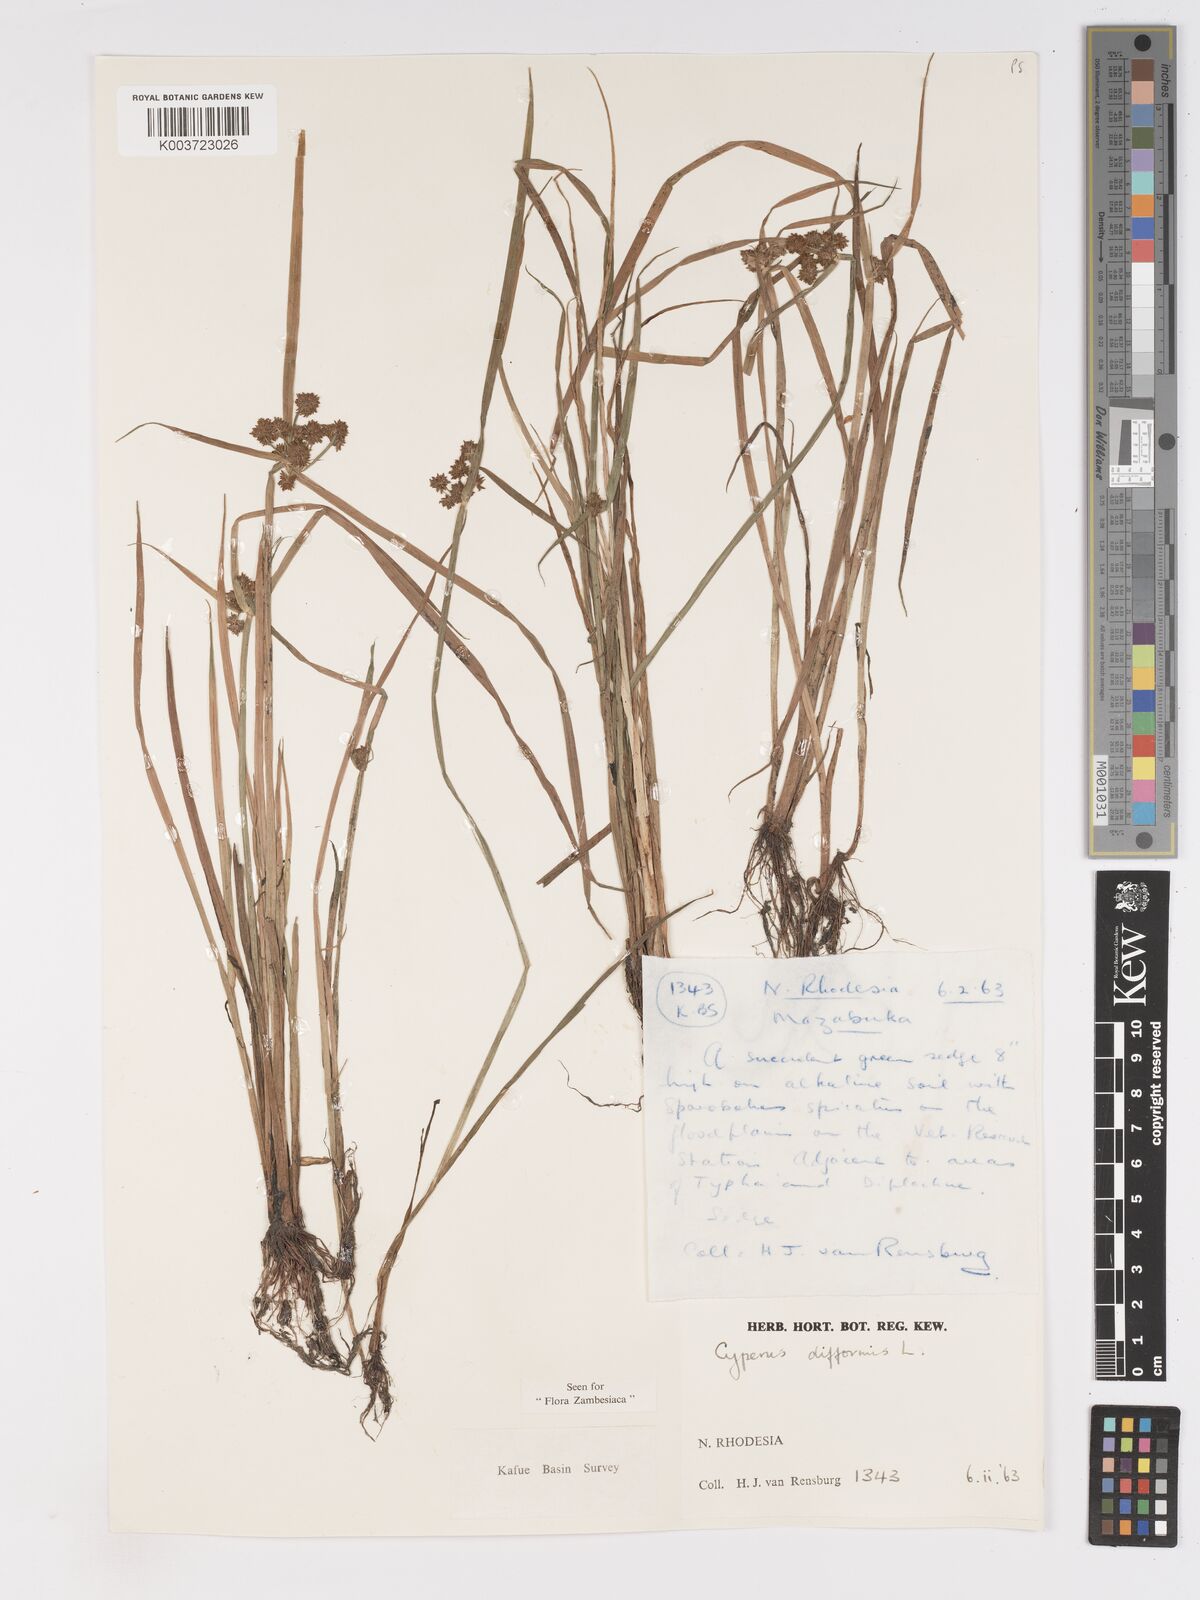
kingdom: Plantae
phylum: Tracheophyta
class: Liliopsida
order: Poales
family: Cyperaceae
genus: Cyperus
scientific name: Cyperus difformis
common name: Variable flatsedge
